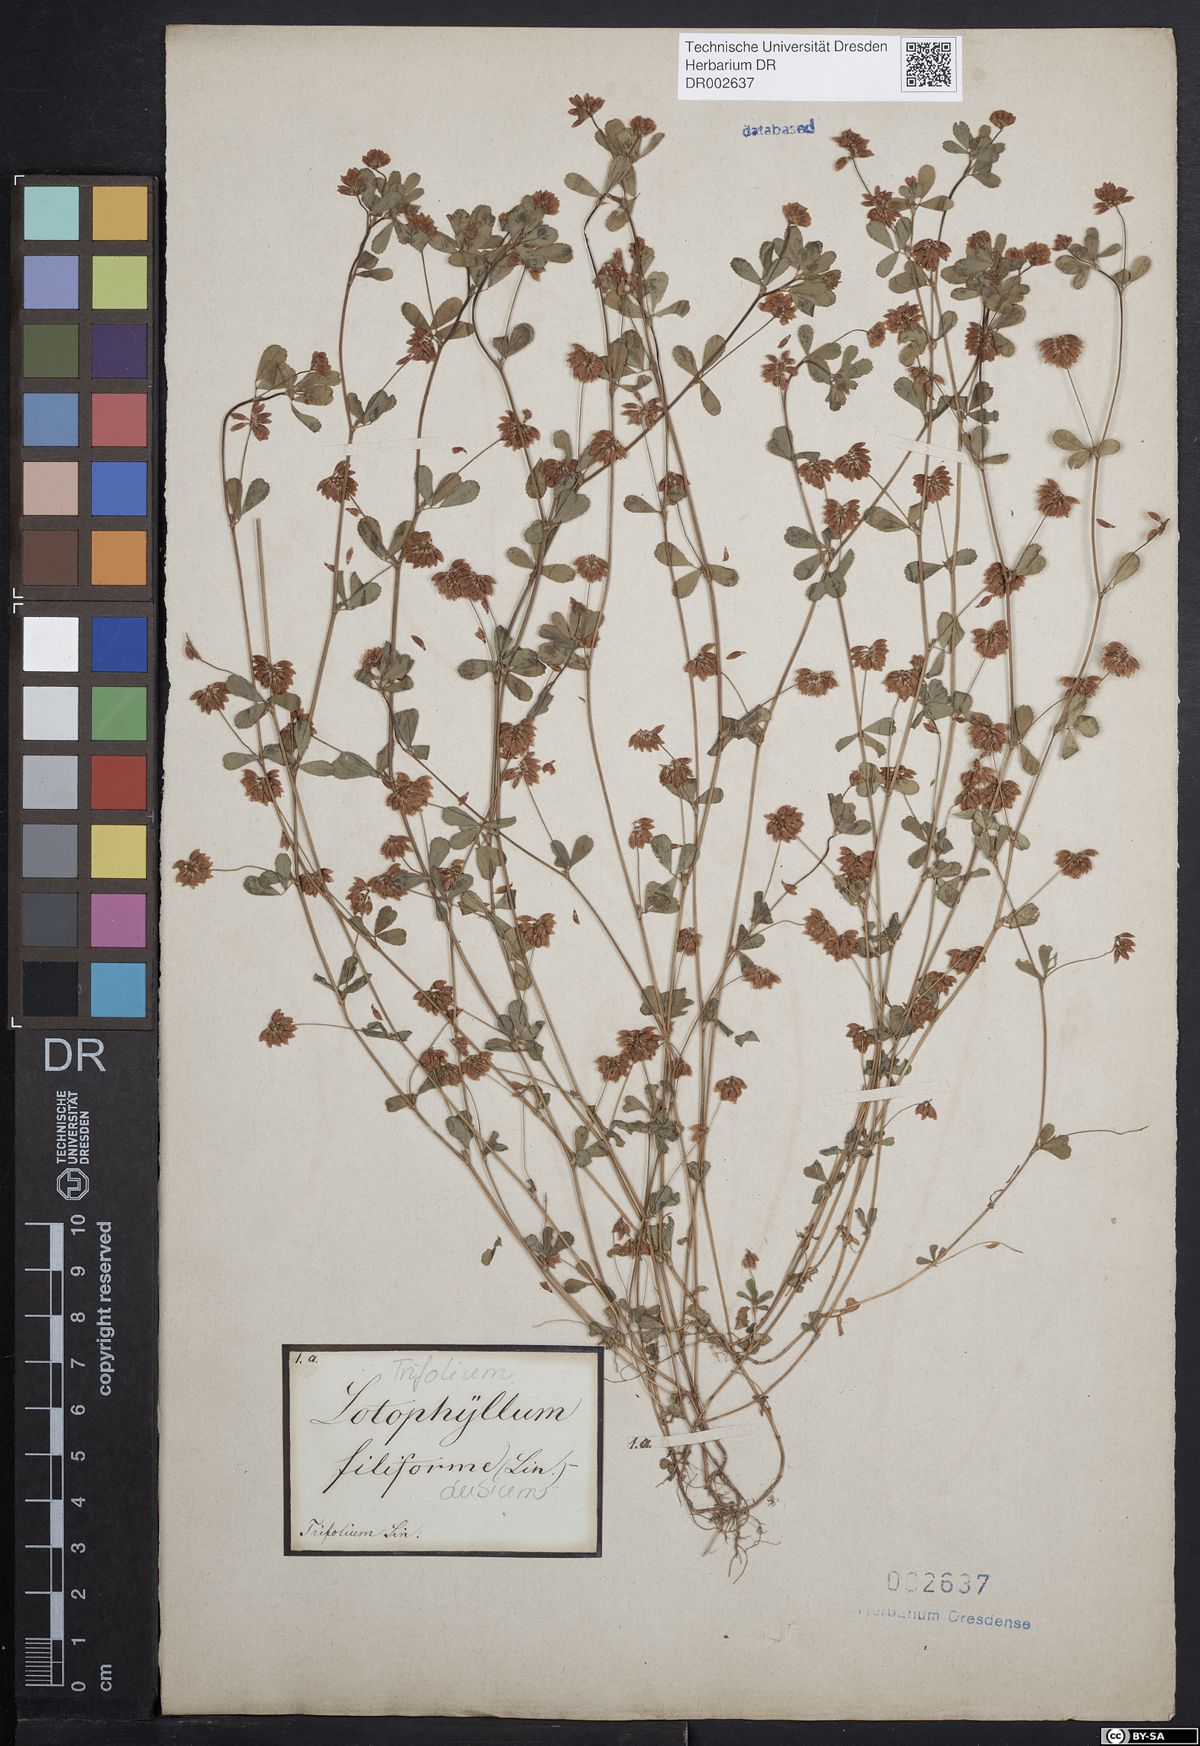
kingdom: Plantae
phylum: Tracheophyta
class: Magnoliopsida
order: Fabales
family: Fabaceae
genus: Trifolium
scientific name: Trifolium dubium
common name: Suckling clover
